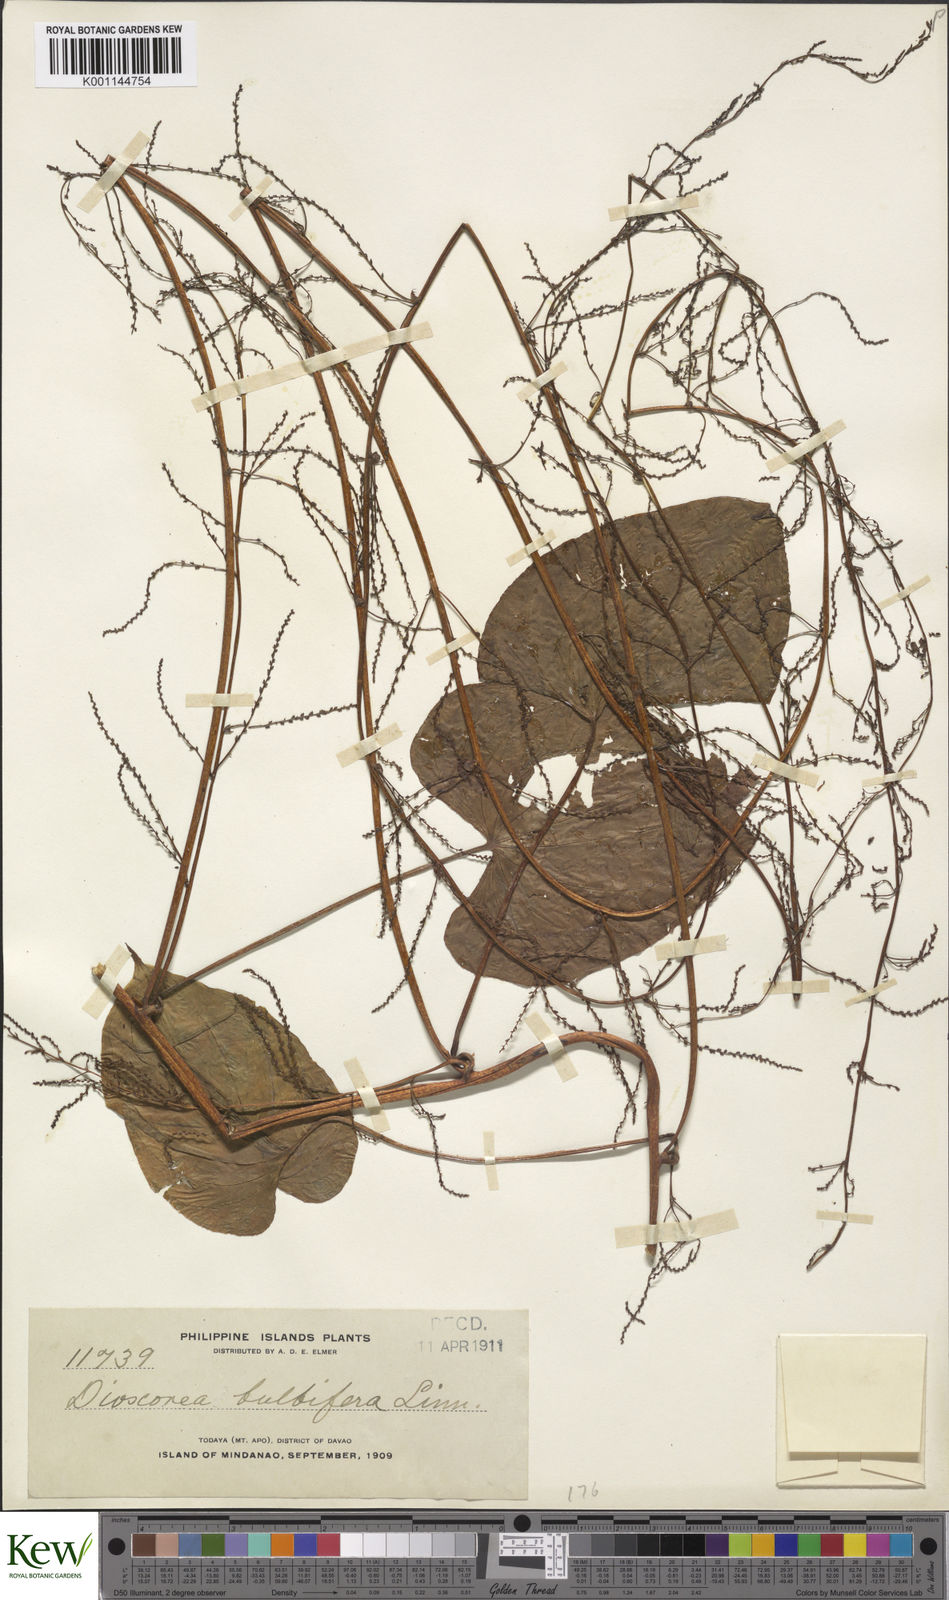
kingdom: Plantae
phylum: Tracheophyta
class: Liliopsida
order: Dioscoreales
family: Dioscoreaceae
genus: Dioscorea
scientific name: Dioscorea bulbifera
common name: Air yam
